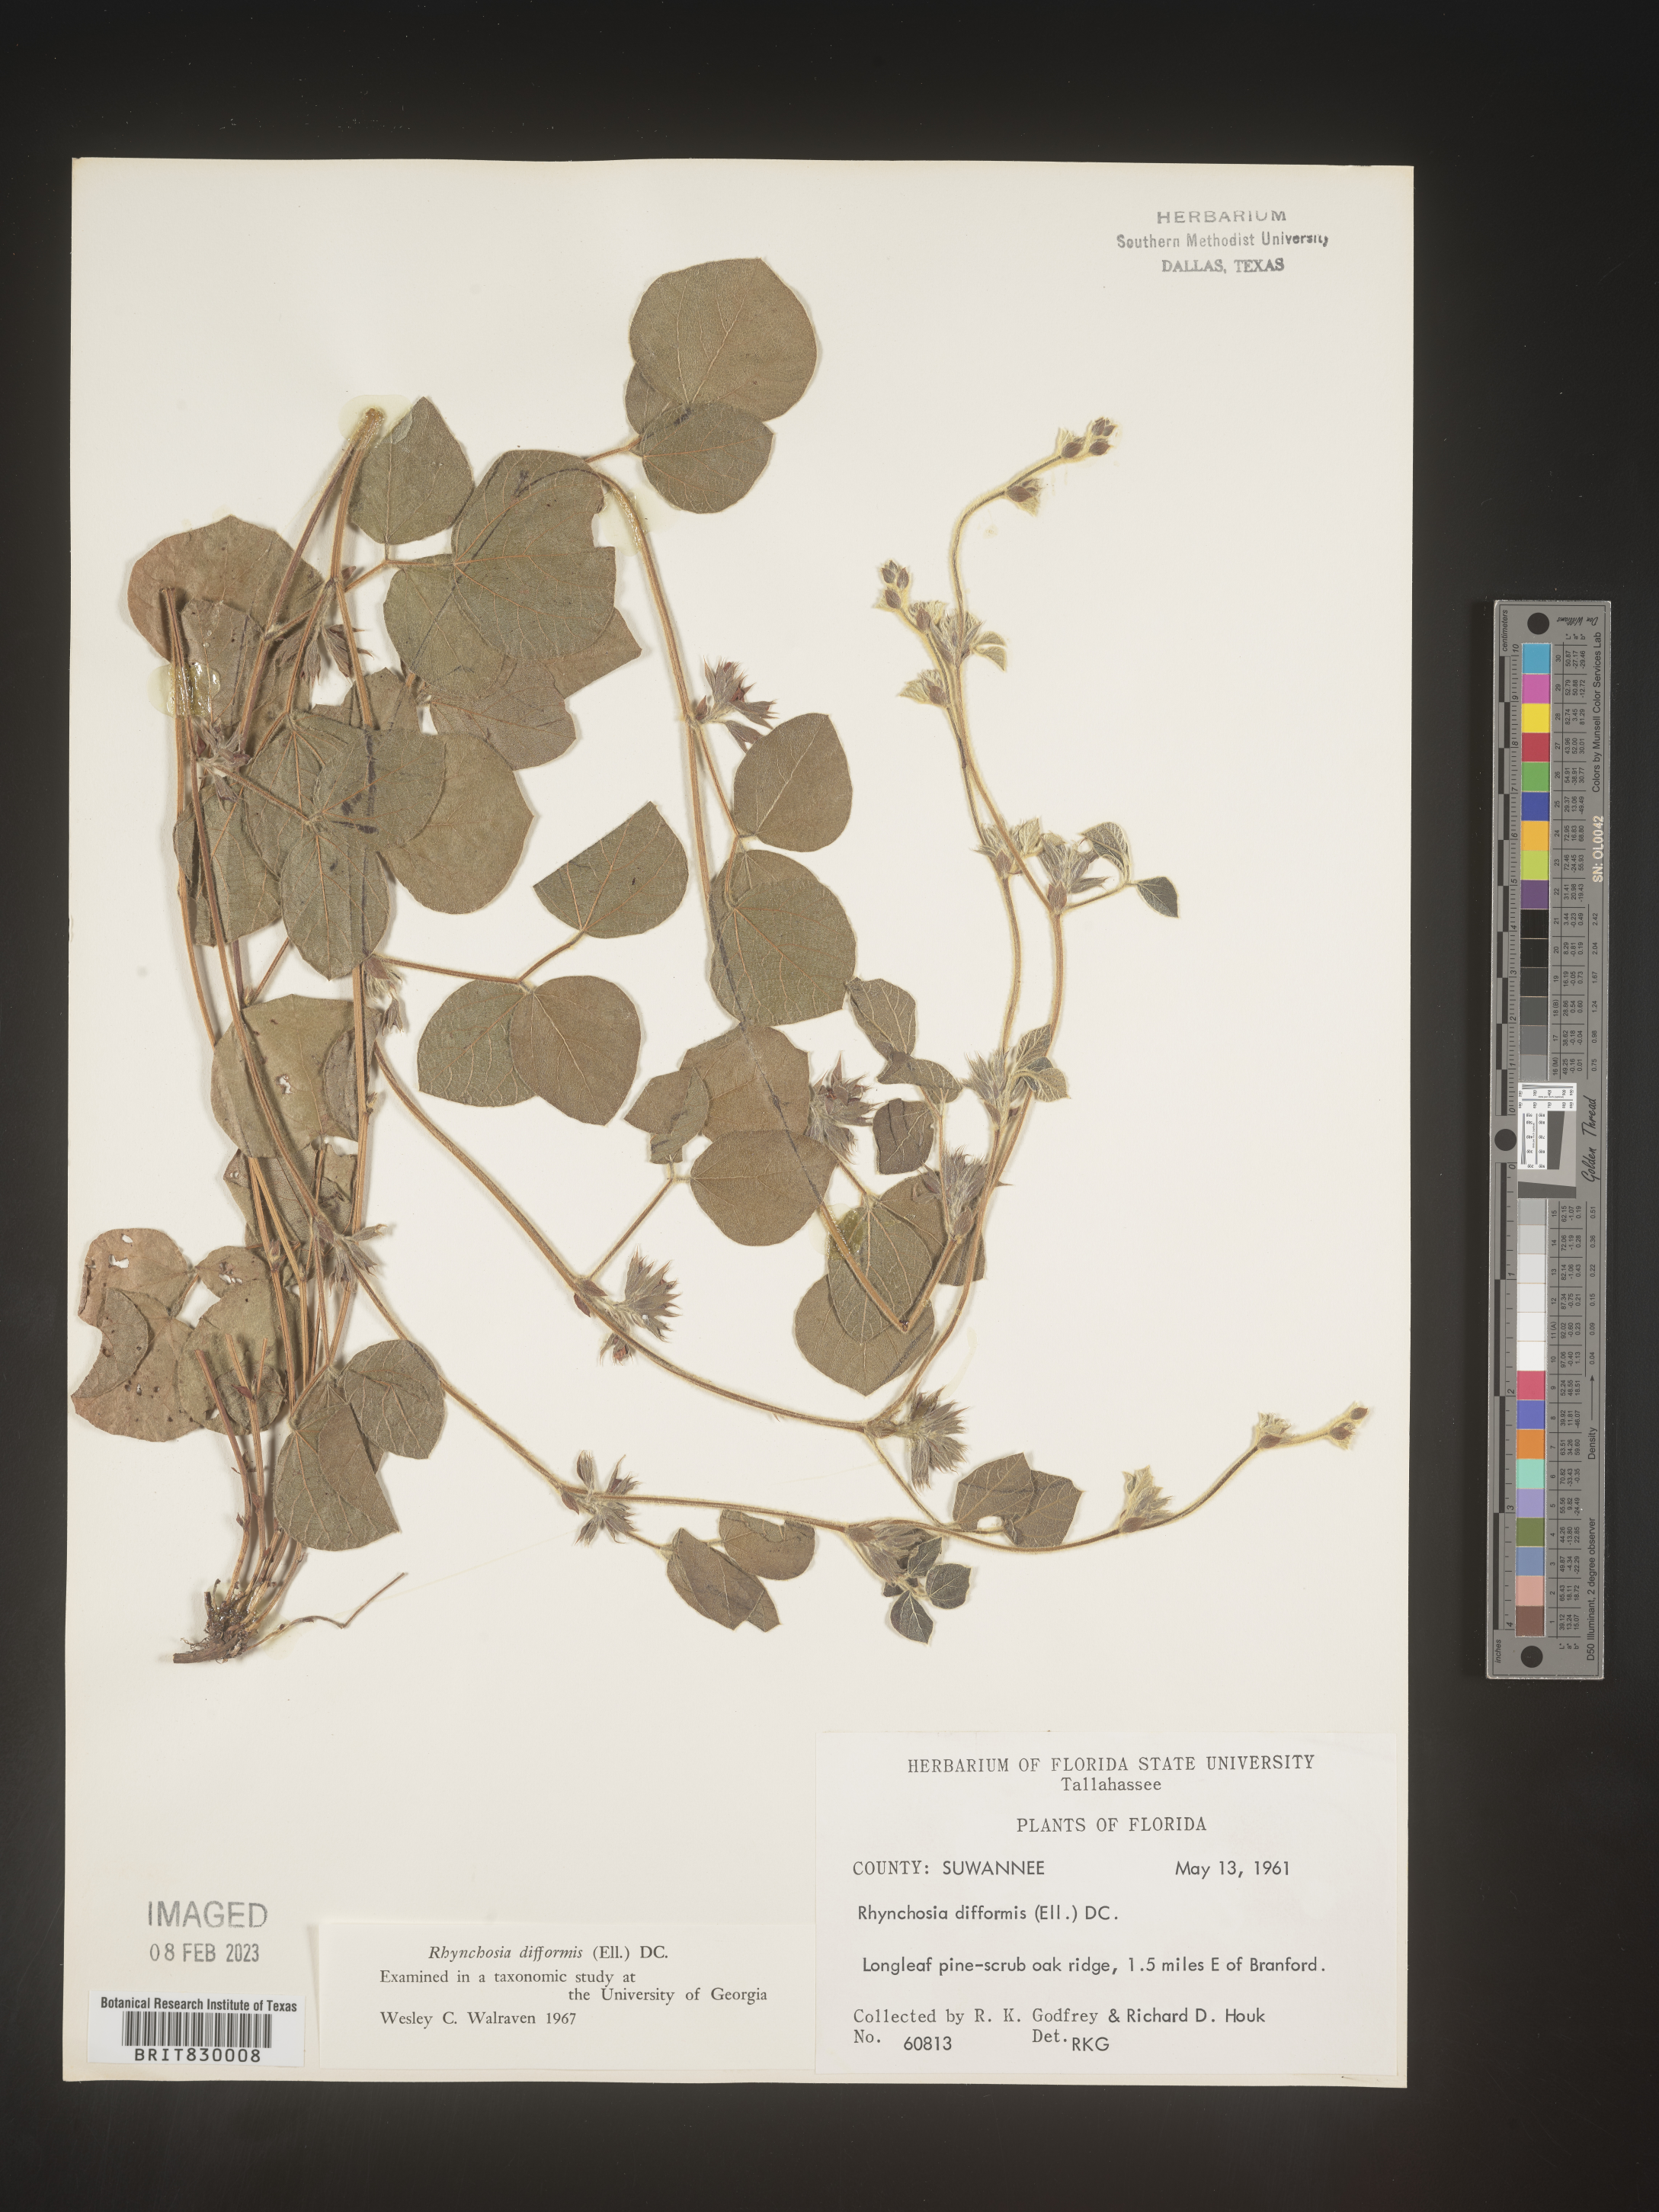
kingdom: Plantae
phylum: Tracheophyta
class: Magnoliopsida
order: Fabales
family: Fabaceae
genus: Rhynchosia
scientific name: Rhynchosia difformis
